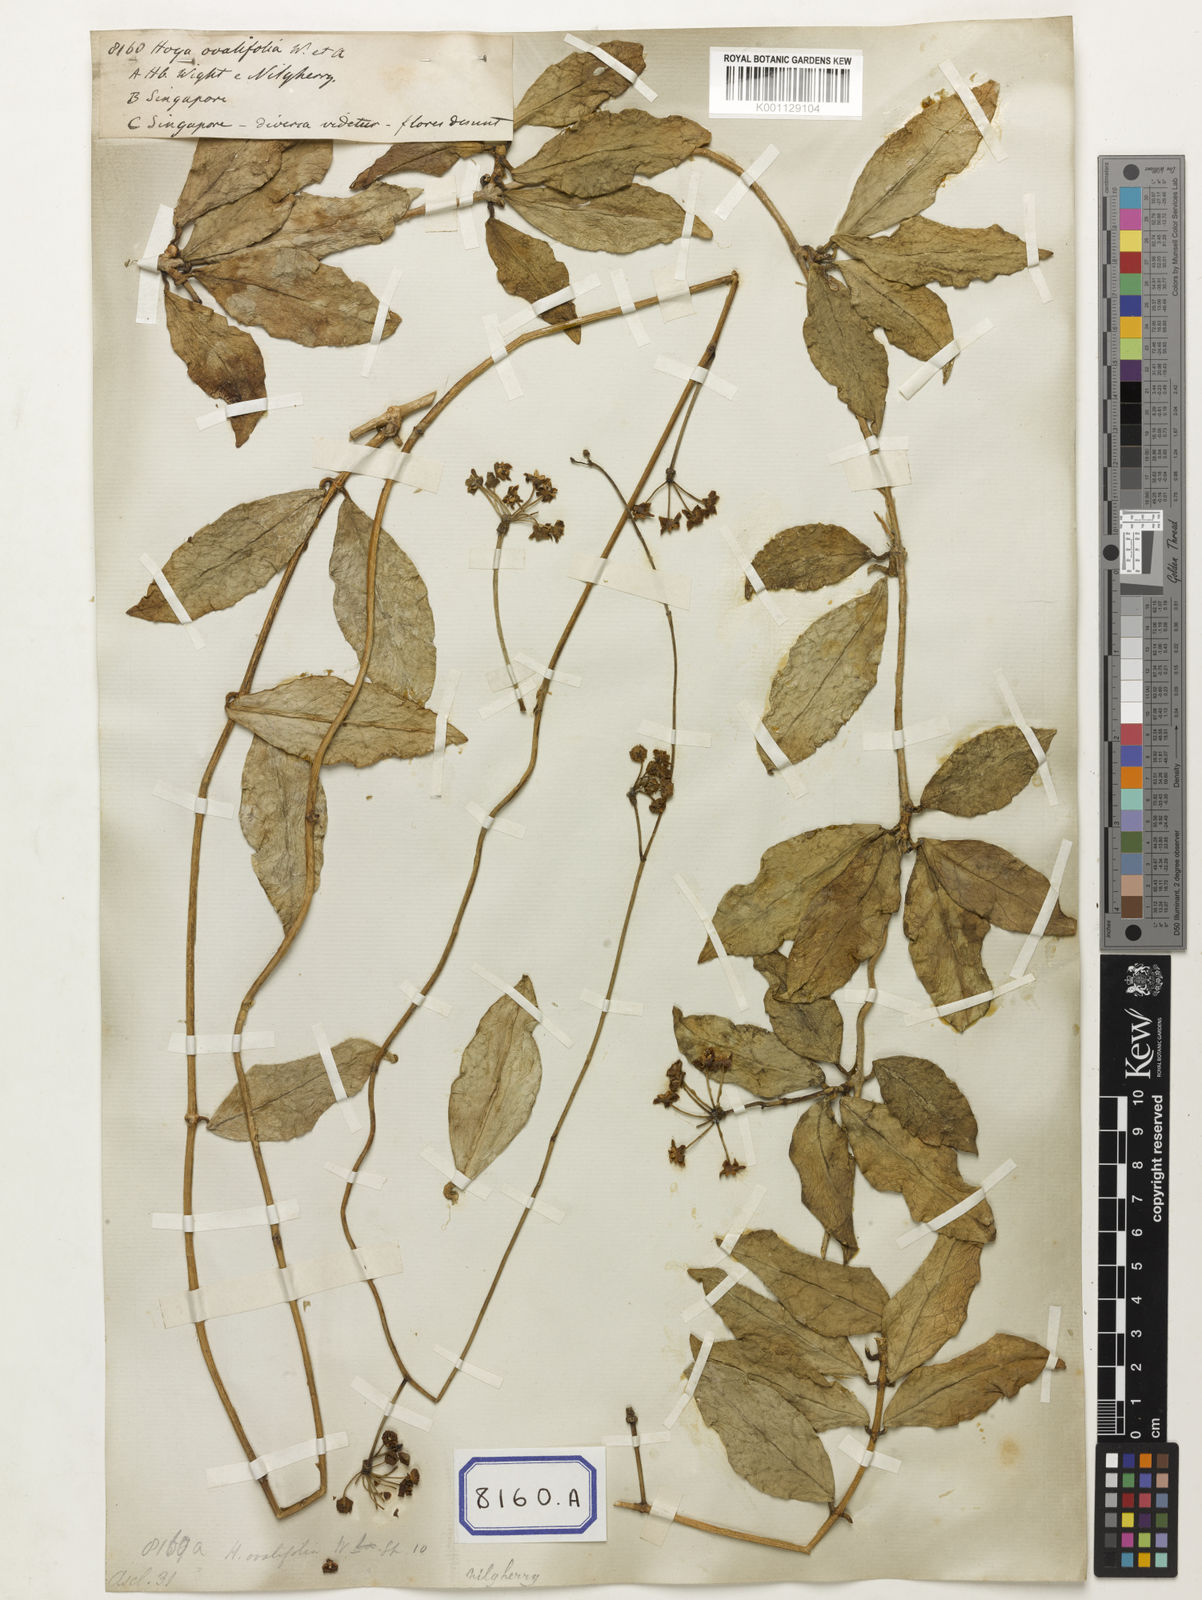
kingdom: Plantae
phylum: Tracheophyta
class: Magnoliopsida
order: Gentianales
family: Apocynaceae
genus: Hoya
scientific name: Hoya ovalifolia
